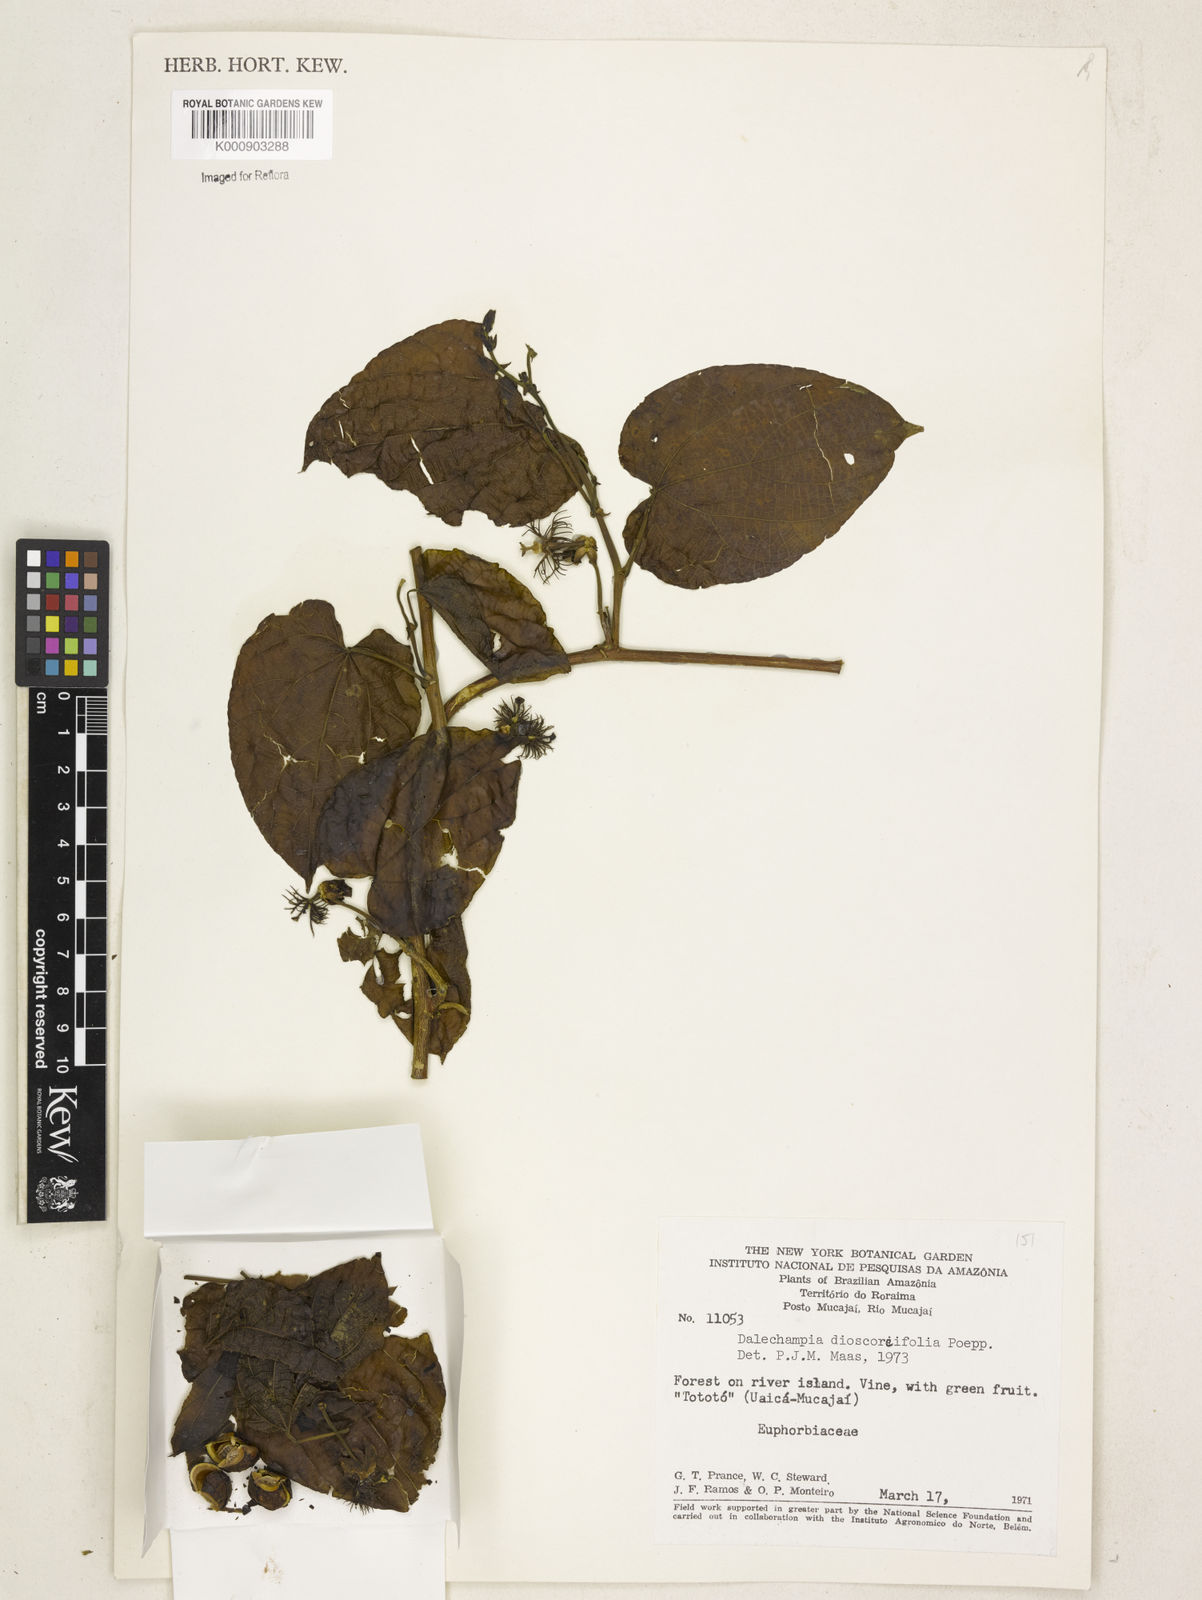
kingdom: Plantae
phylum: Tracheophyta
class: Magnoliopsida
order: Malpighiales
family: Euphorbiaceae
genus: Dalechampia
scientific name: Dalechampia dioscoreifolia
